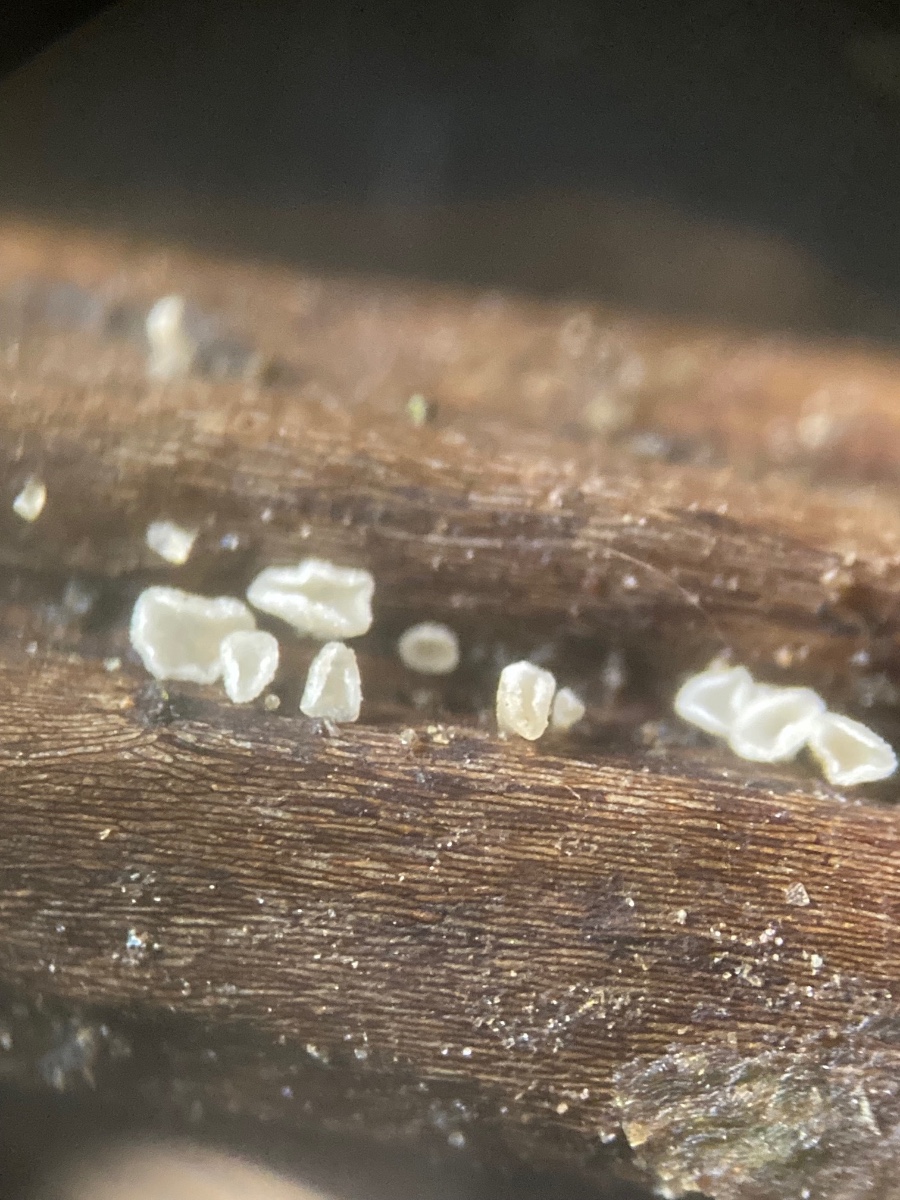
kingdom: Fungi
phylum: Ascomycota
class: Leotiomycetes
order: Helotiales
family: Pezizellaceae
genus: Psilachnum
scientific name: Psilachnum chrysostigmum
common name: gulnende hårskive
